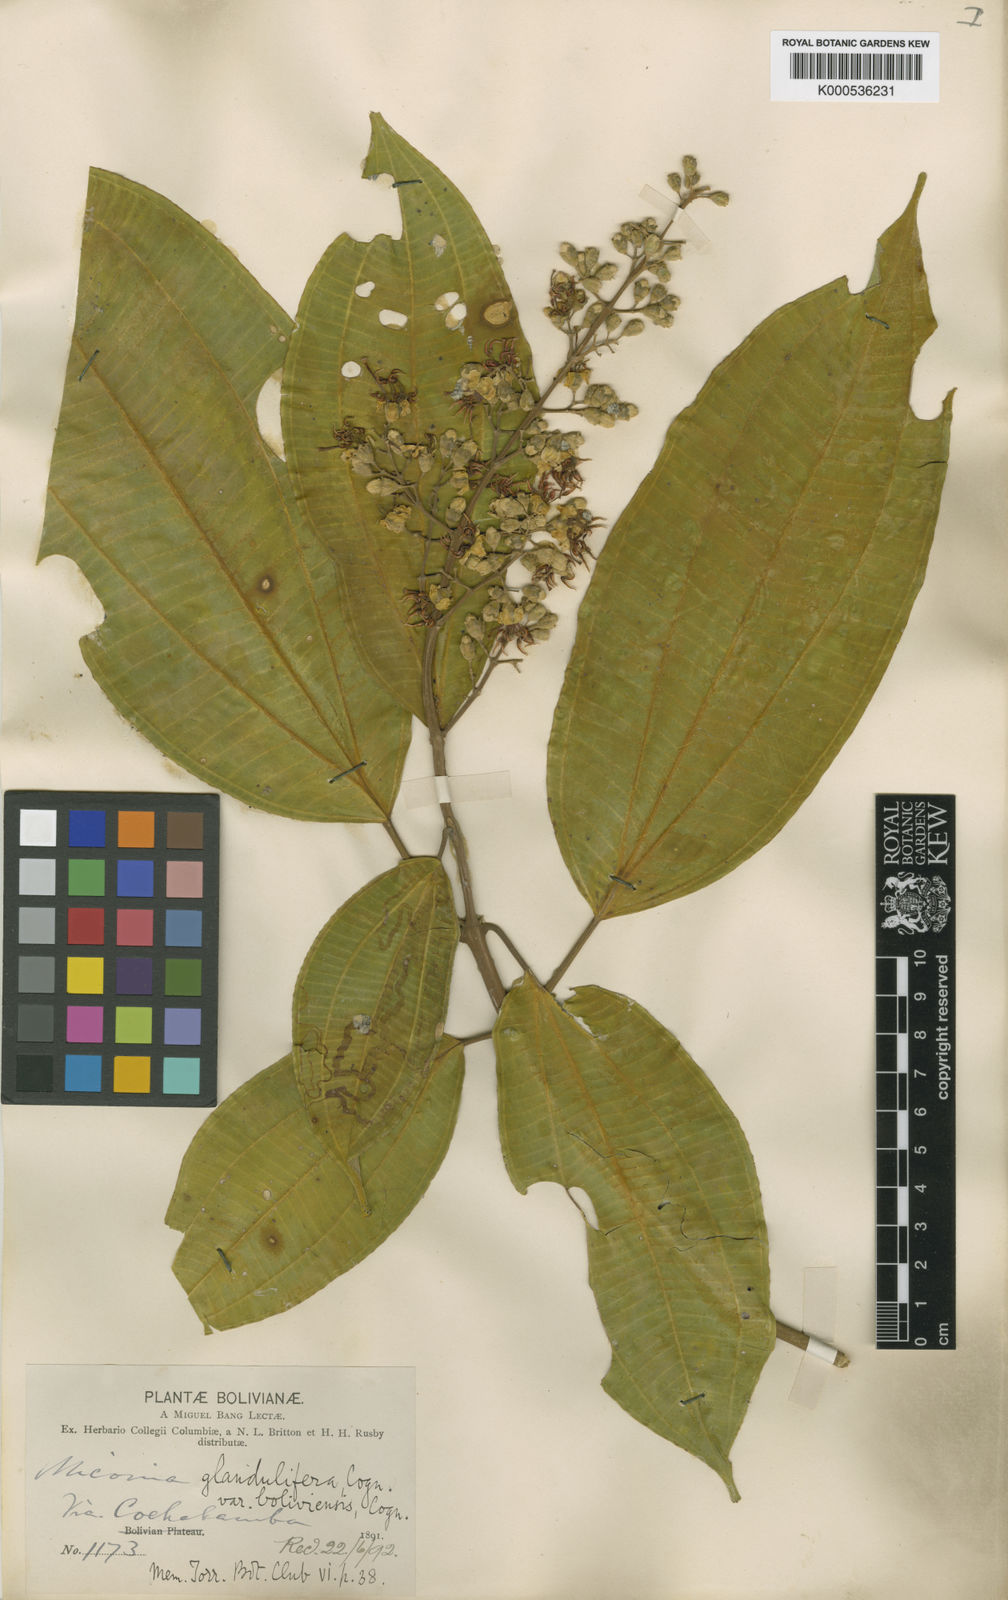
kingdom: Plantae
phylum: Tracheophyta
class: Magnoliopsida
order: Myrtales
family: Melastomataceae
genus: Miconia
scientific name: Miconia glandulifera
